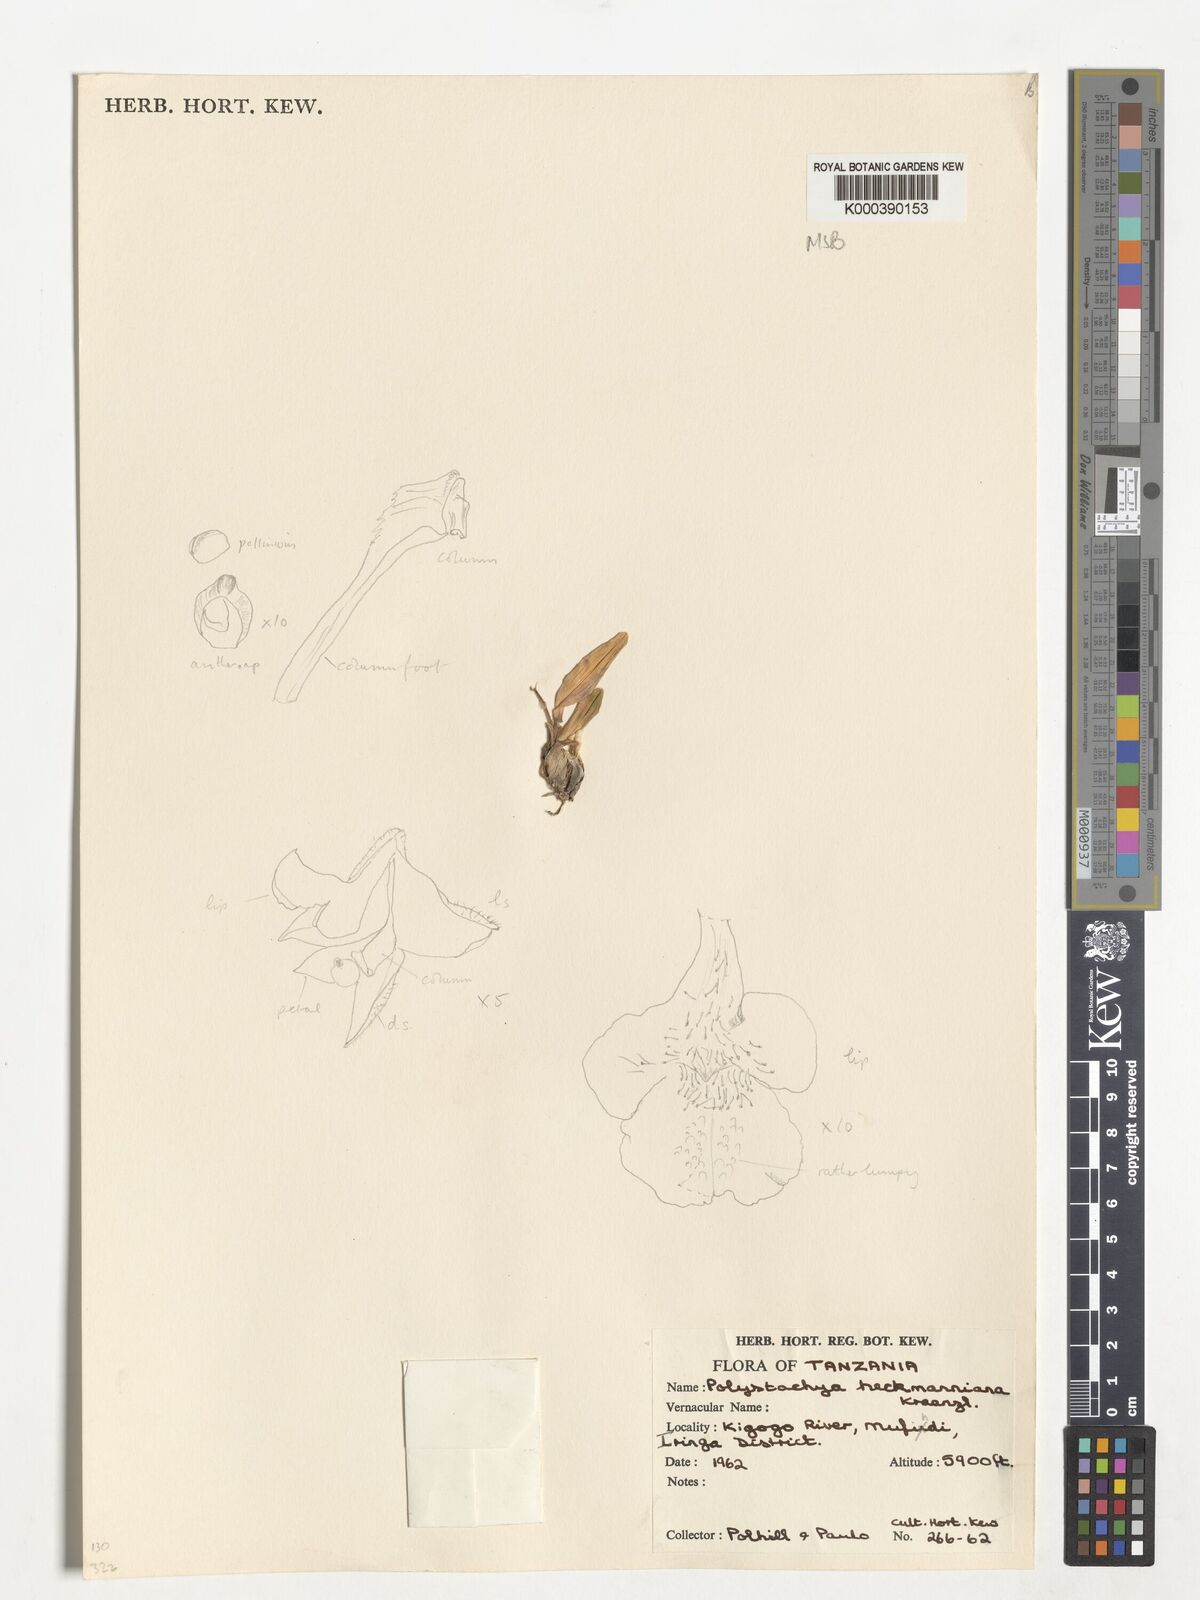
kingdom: Plantae
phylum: Tracheophyta
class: Liliopsida
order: Asparagales
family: Orchidaceae
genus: Polystachya
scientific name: Polystachya heckmanniana
